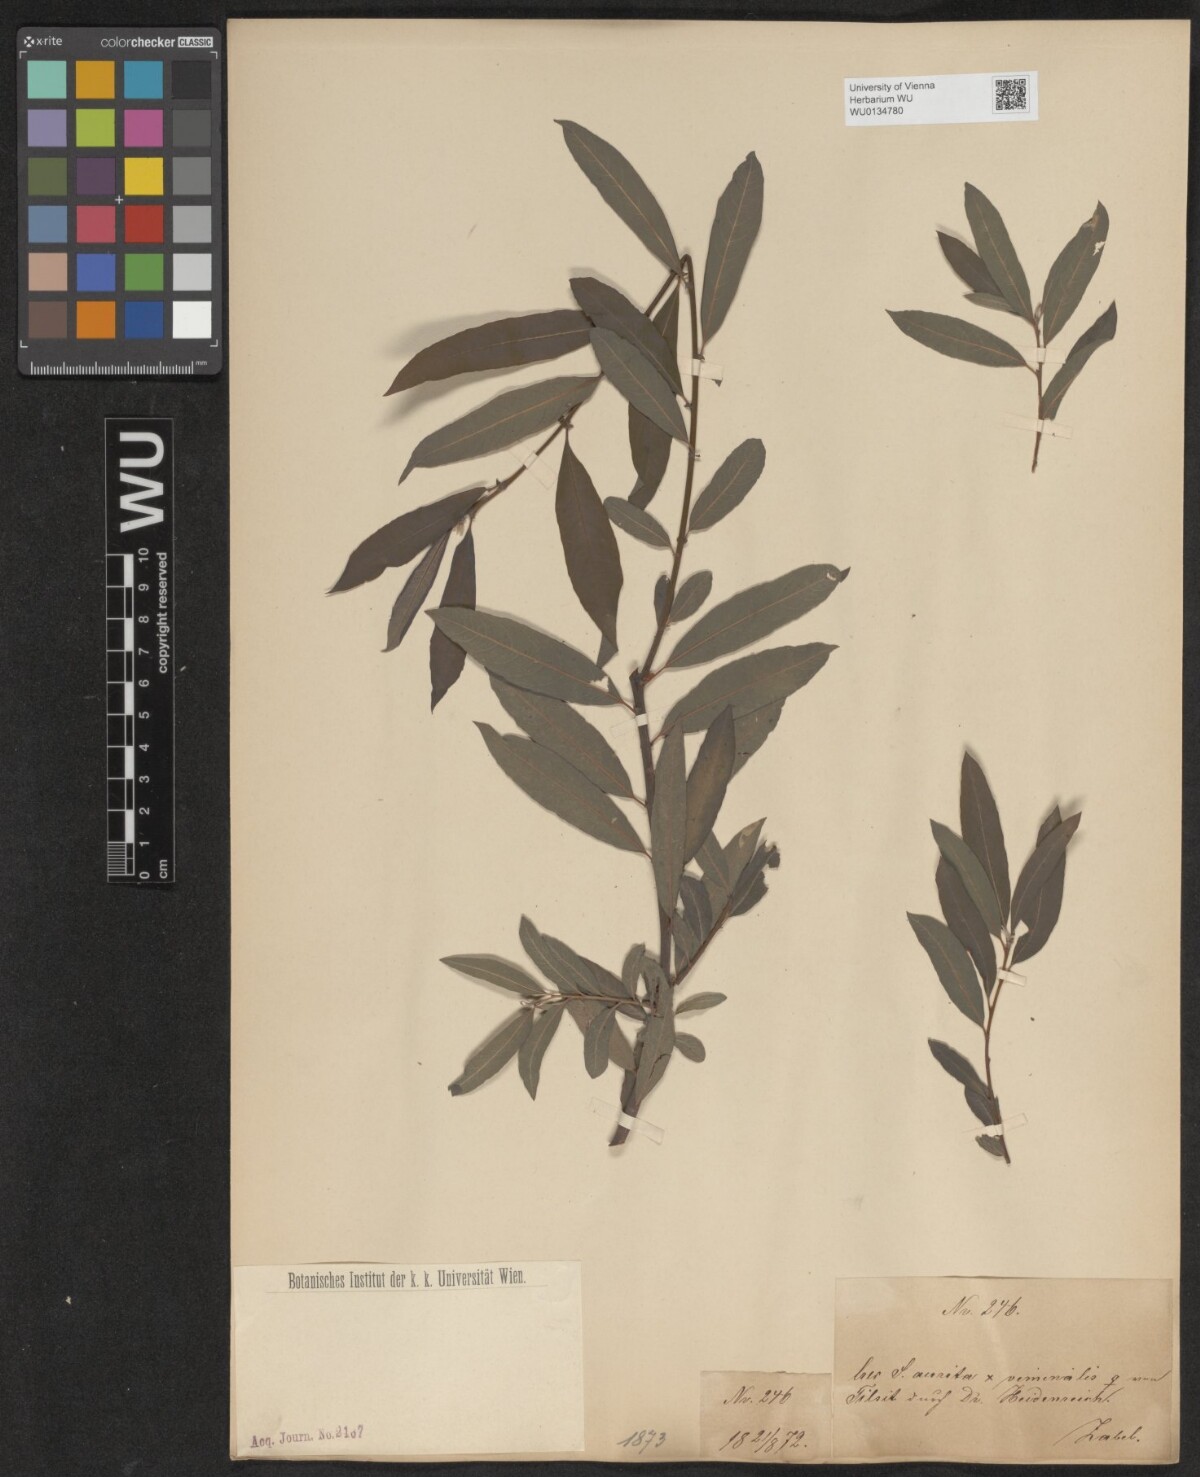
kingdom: Plantae
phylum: Tracheophyta
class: Magnoliopsida
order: Malpighiales
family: Salicaceae
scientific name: Salicaceae
